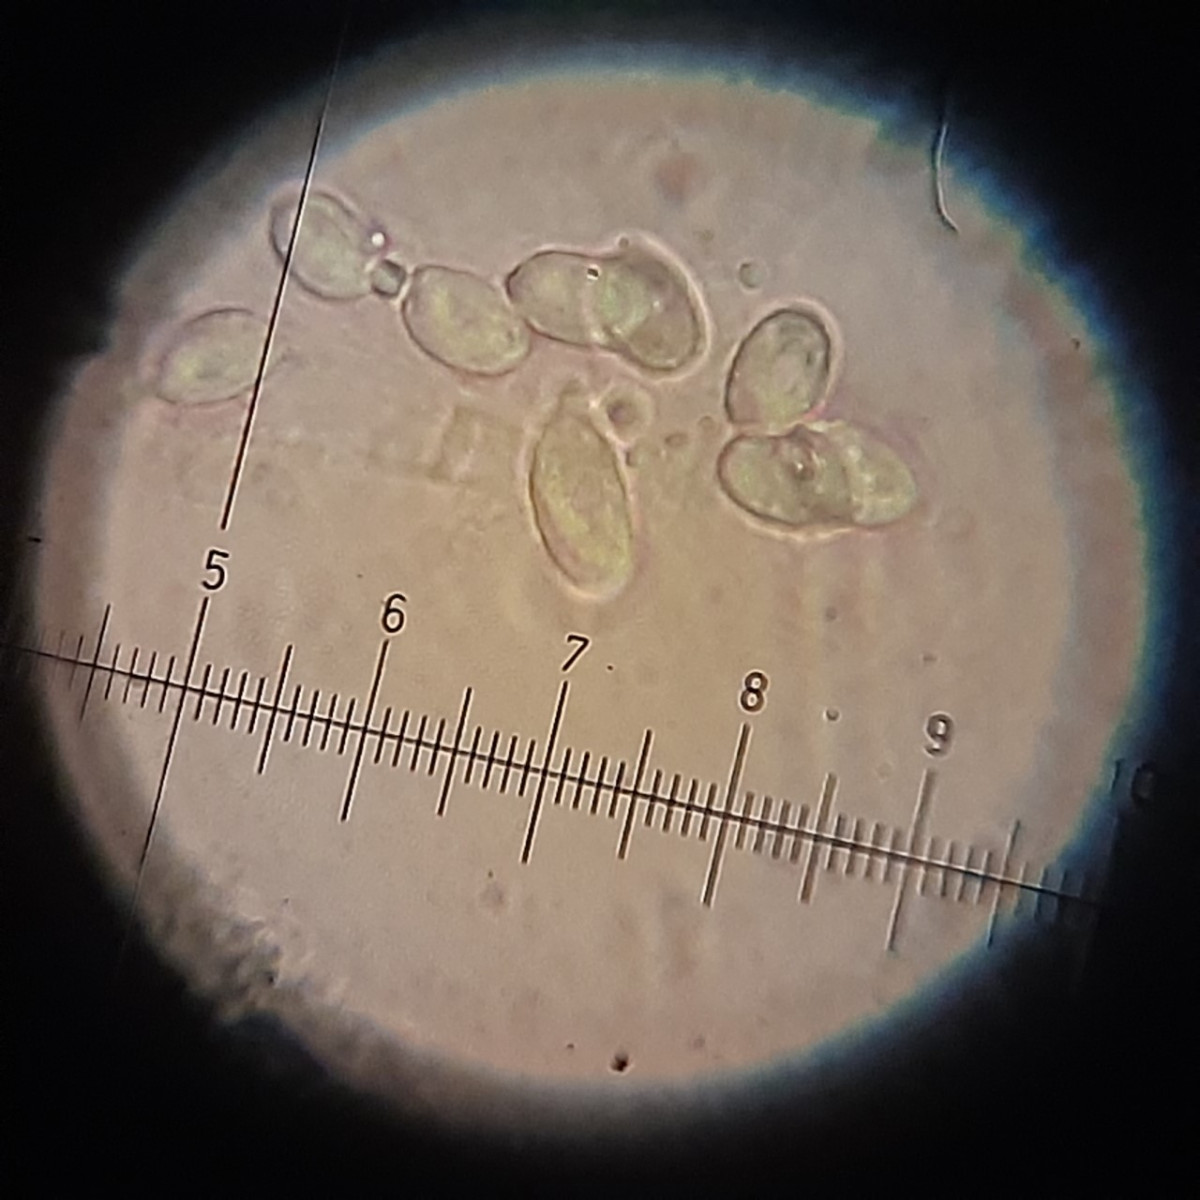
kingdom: Fungi
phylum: Basidiomycota
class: Agaricomycetes
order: Agaricales
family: Tricholomataceae
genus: Melanoleuca
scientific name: Melanoleuca
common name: munkehat
